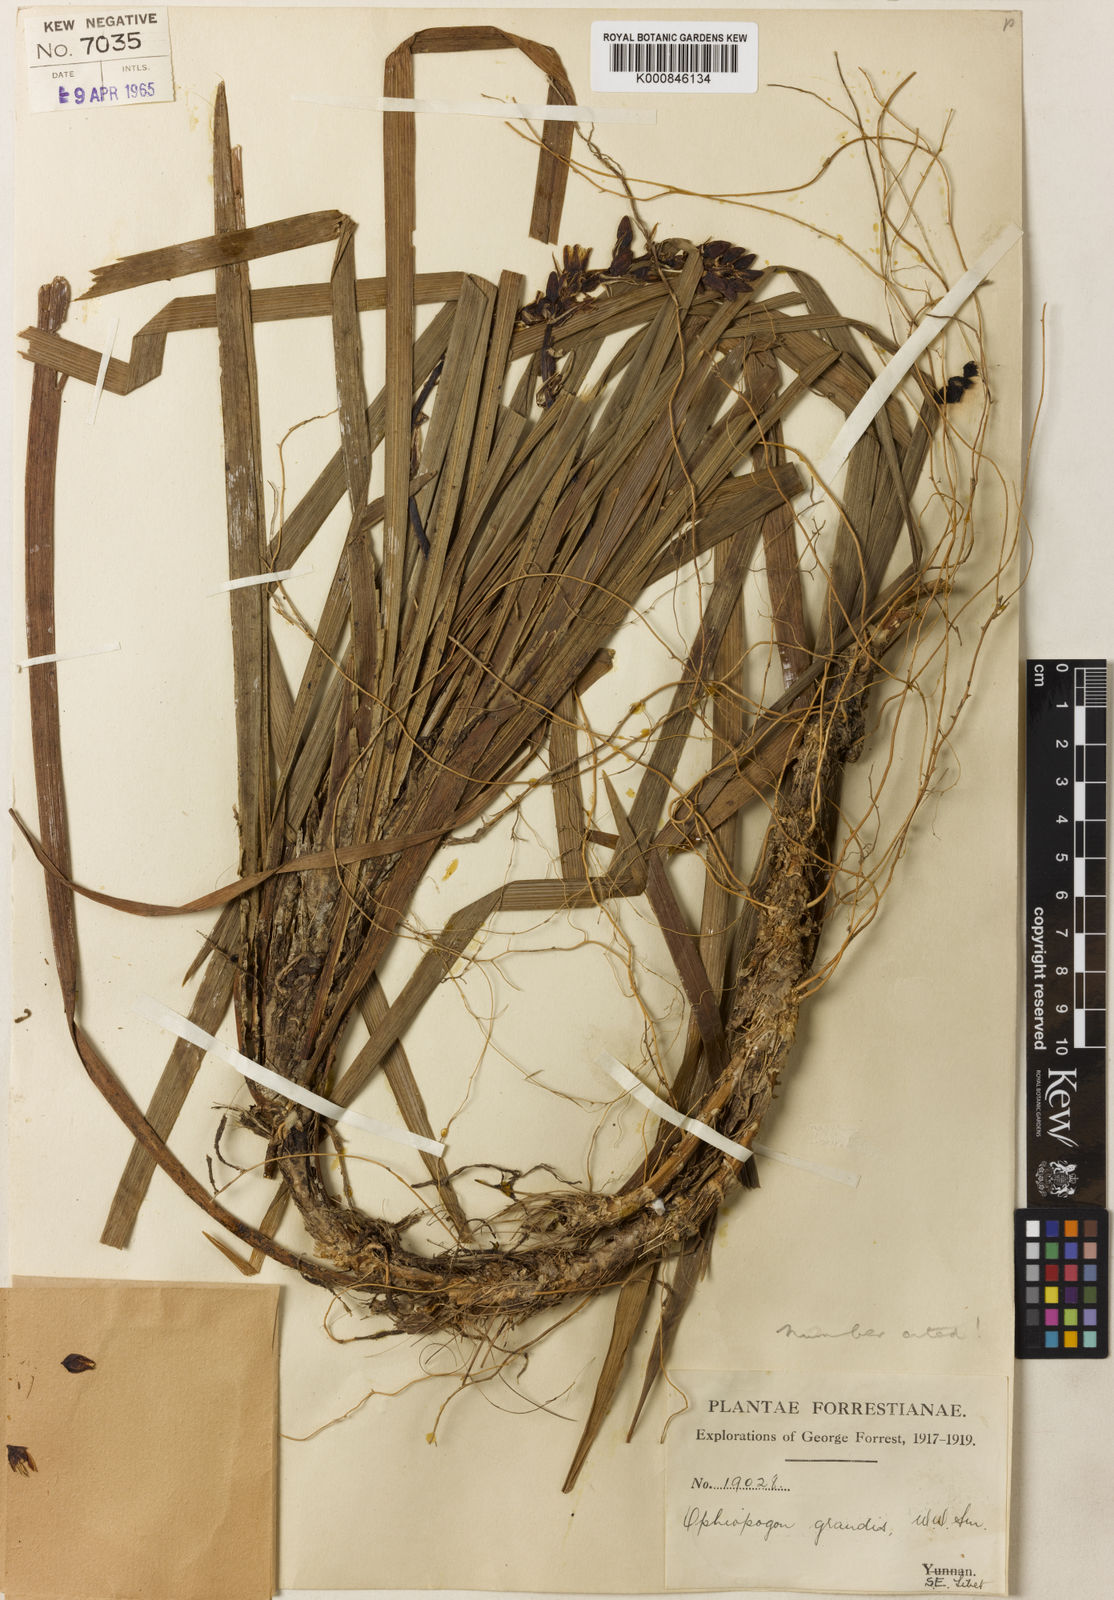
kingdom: Plantae
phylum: Tracheophyta
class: Liliopsida
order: Asparagales
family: Asparagaceae
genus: Ophiopogon
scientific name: Ophiopogon grandis
